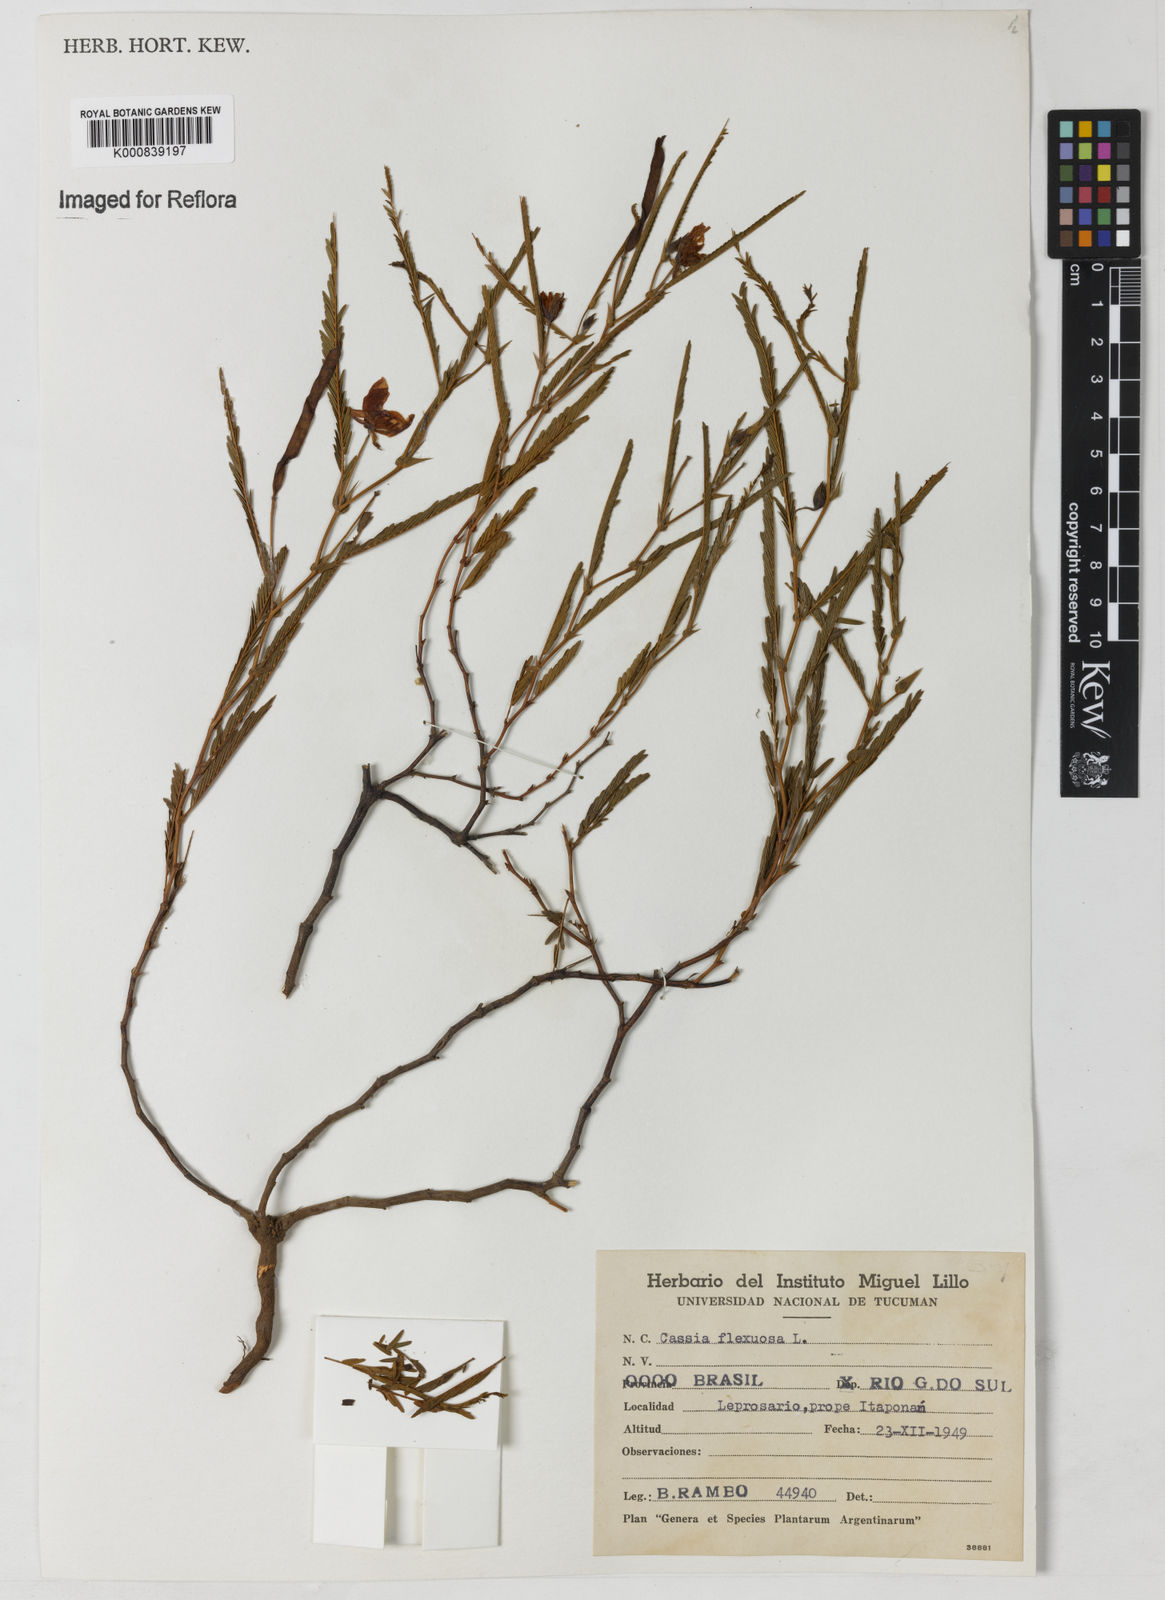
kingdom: Plantae
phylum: Tracheophyta
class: Magnoliopsida
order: Fabales
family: Fabaceae
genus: Chamaecrista
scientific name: Chamaecrista flexuosa
